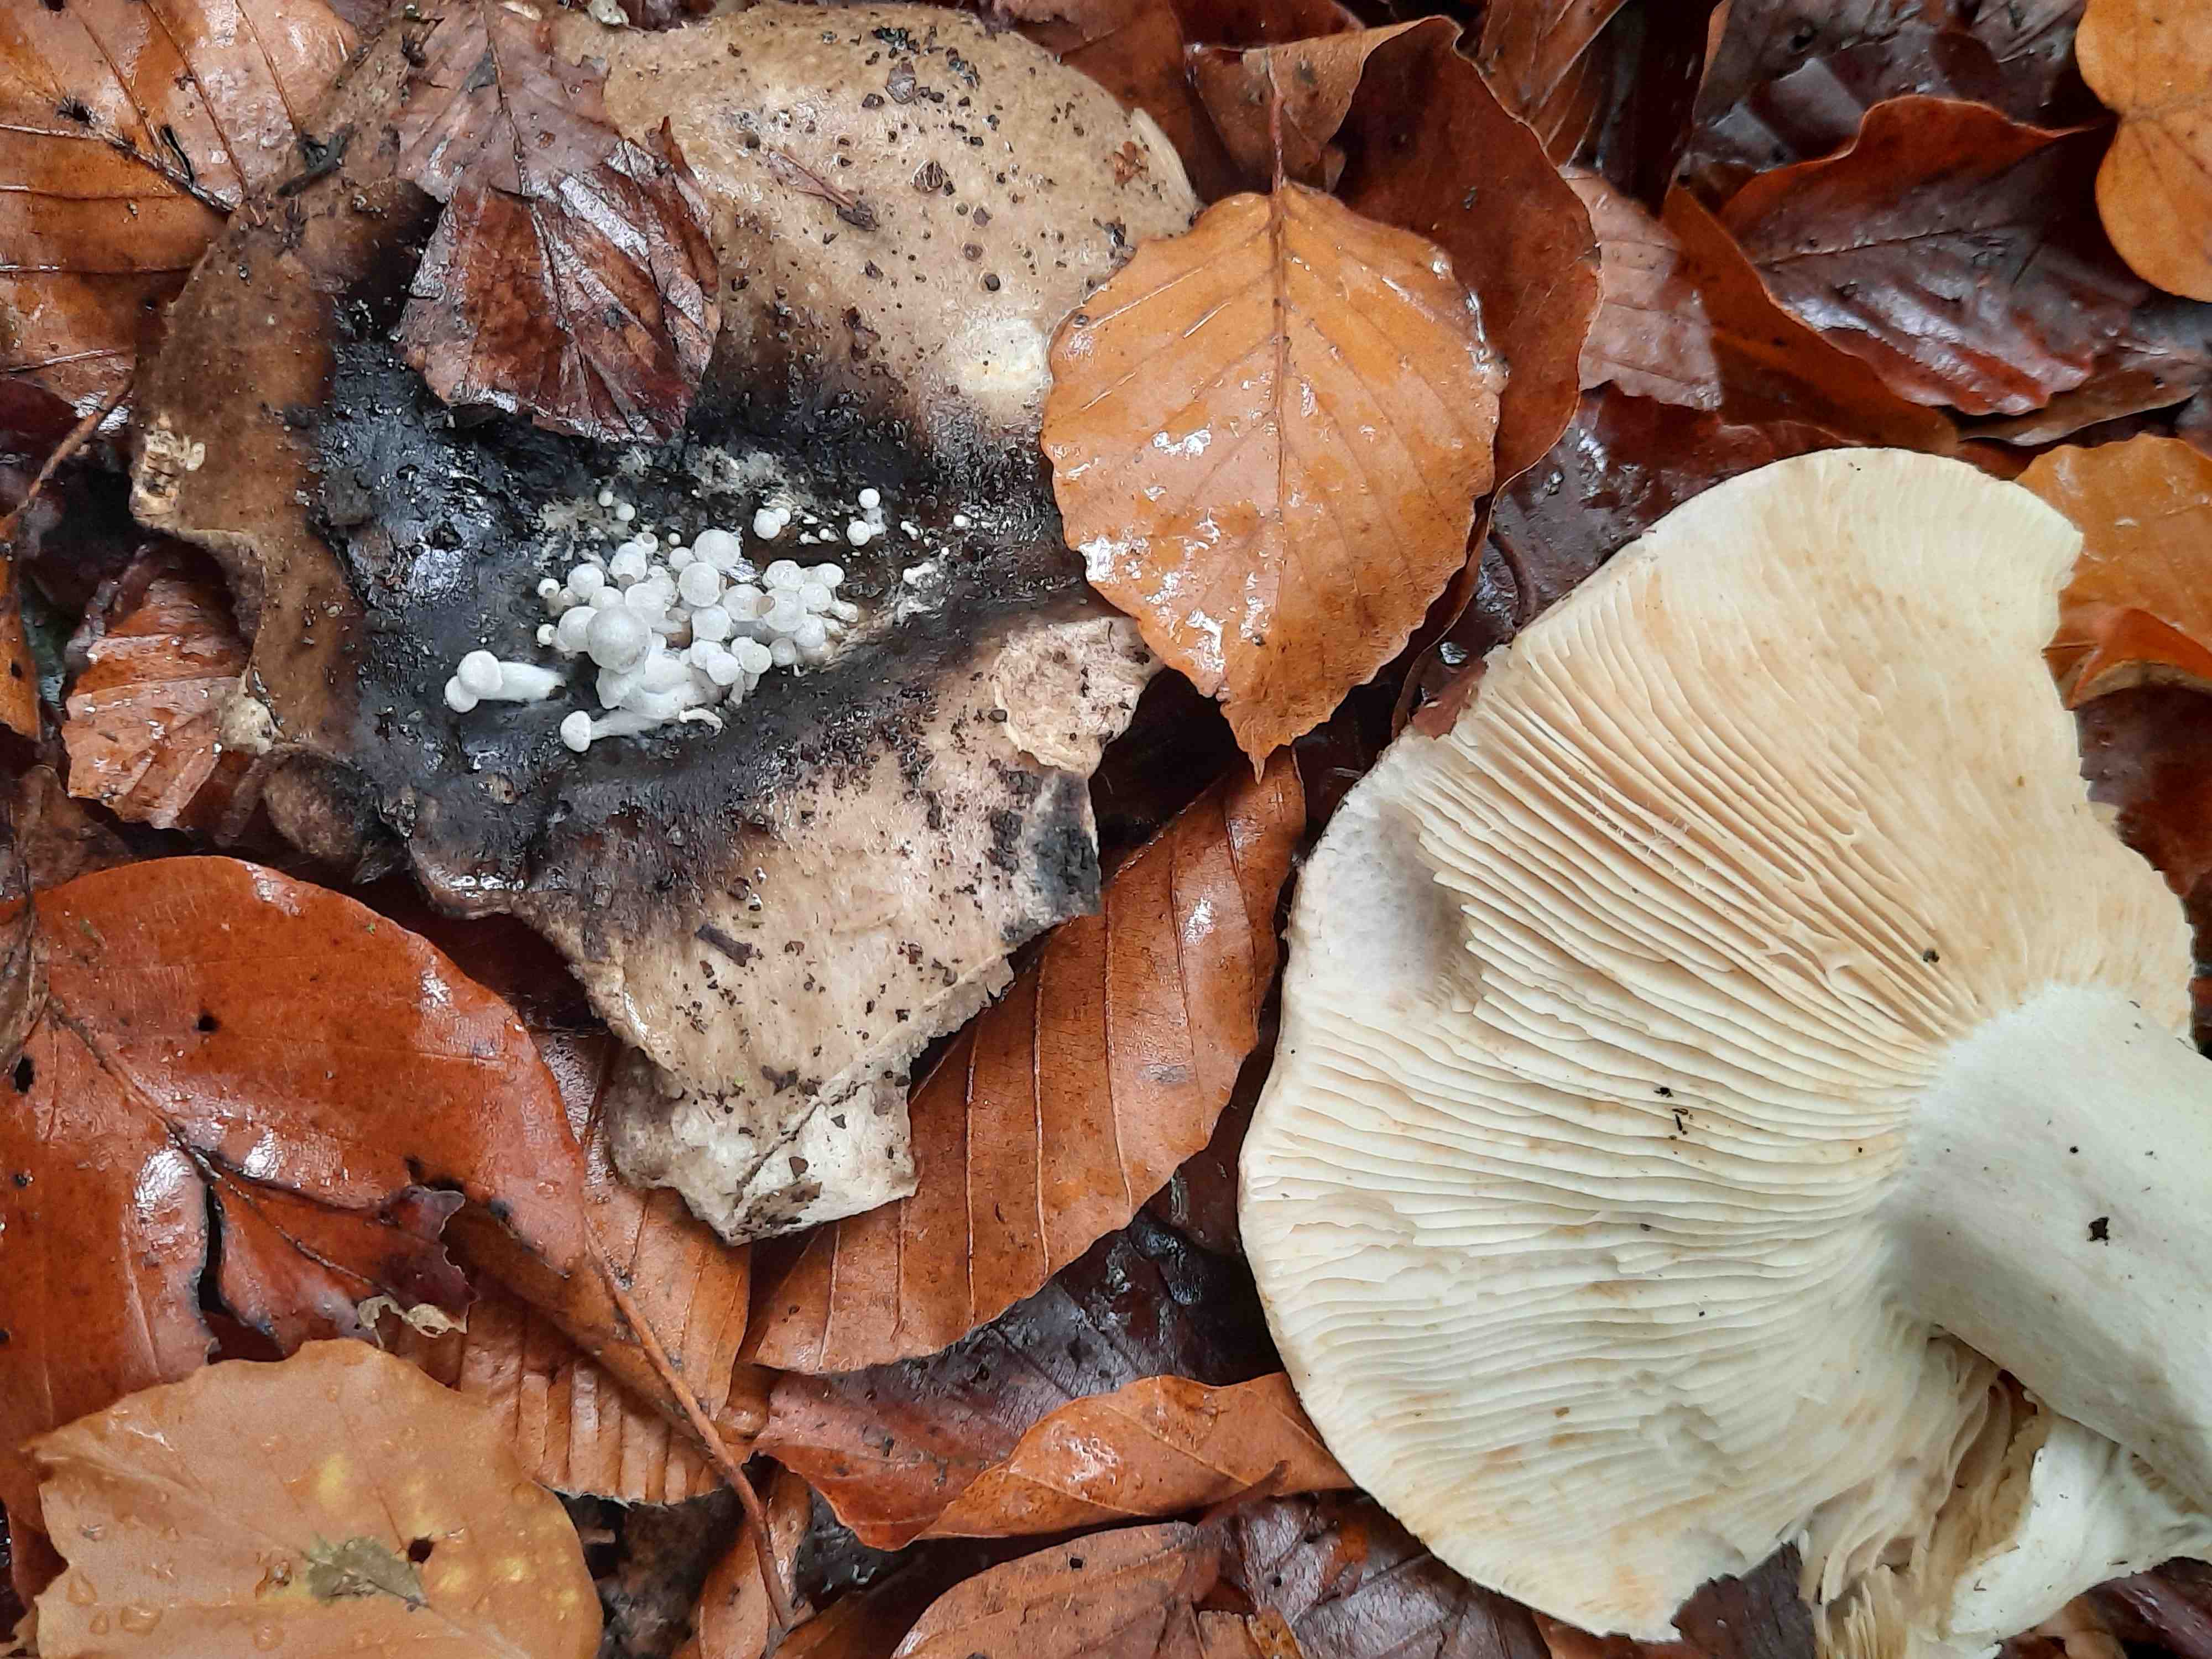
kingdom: Fungi
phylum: Basidiomycota
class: Agaricomycetes
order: Agaricales
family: Lyophyllaceae
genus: Asterophora
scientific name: Asterophora parasitica
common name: grå snyltehat
